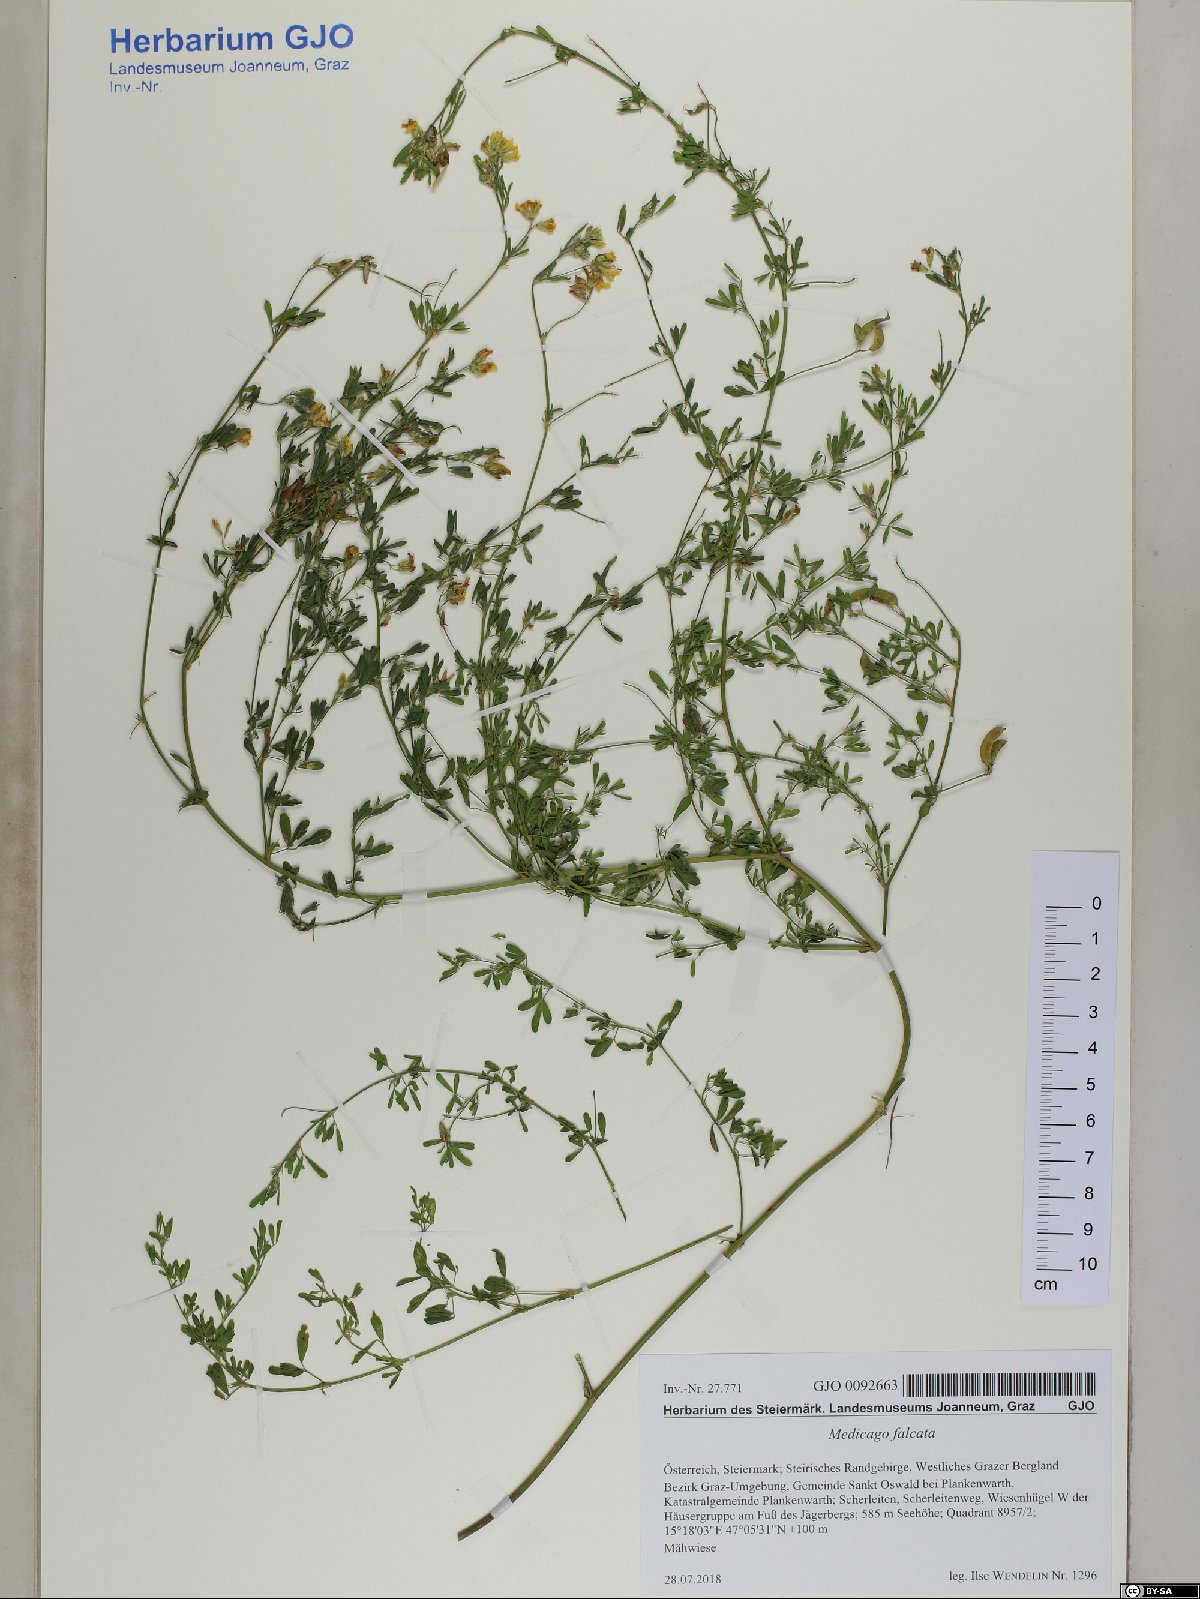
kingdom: Plantae
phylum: Tracheophyta
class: Magnoliopsida
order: Fabales
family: Fabaceae
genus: Medicago
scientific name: Medicago falcata
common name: Sickle medick
